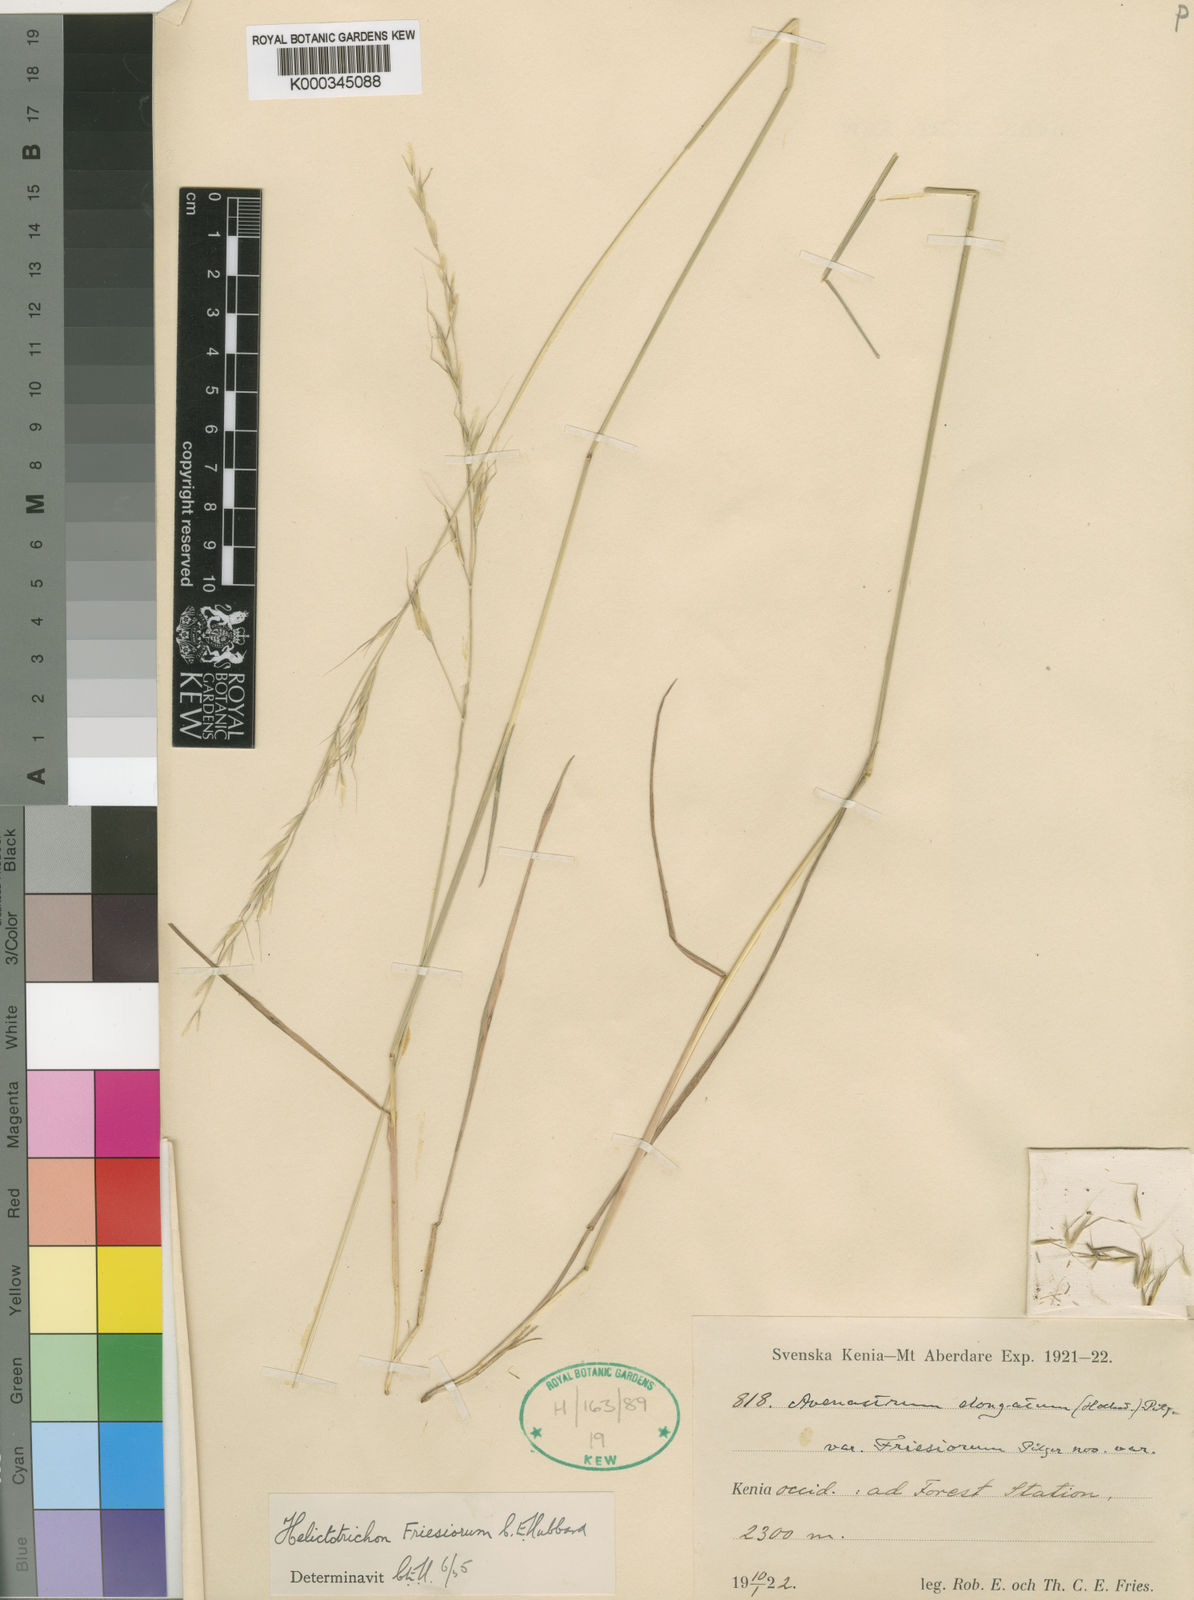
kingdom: Plantae
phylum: Tracheophyta
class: Liliopsida
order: Poales
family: Poaceae
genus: Trisetopsis
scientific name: Trisetopsis umbrosa
